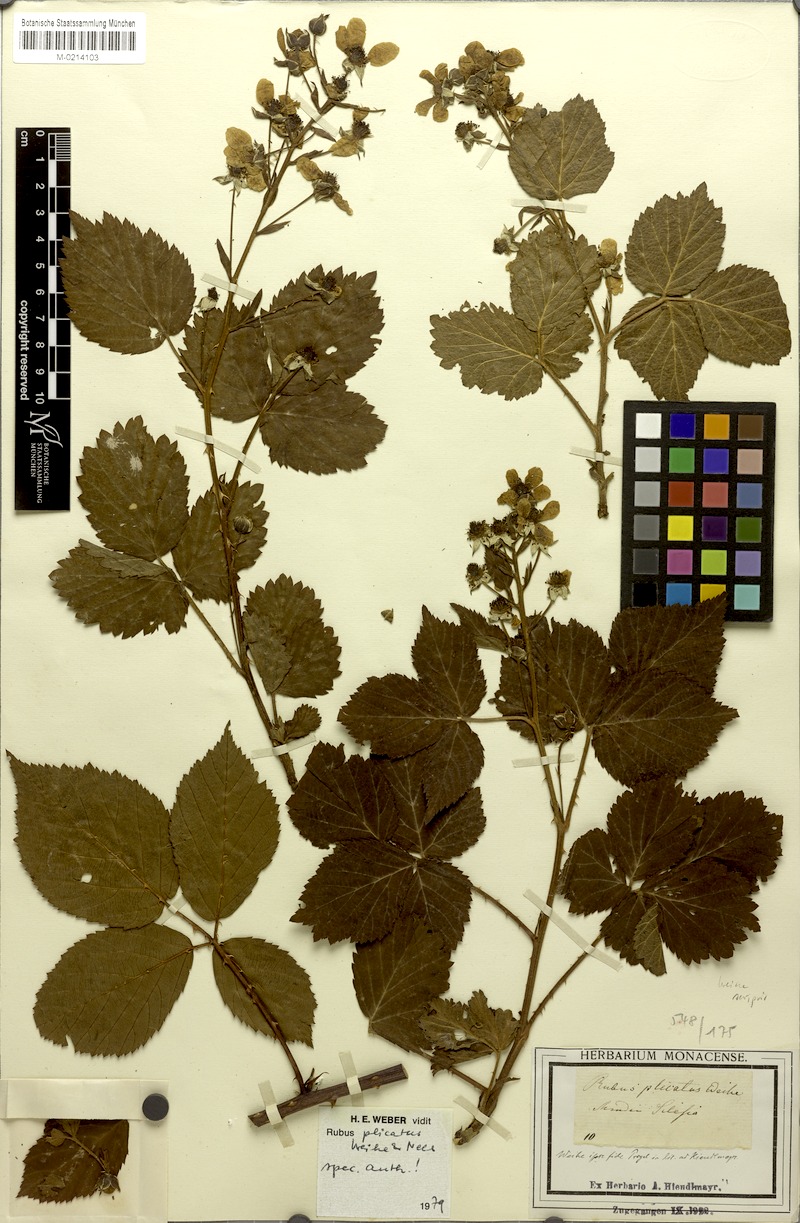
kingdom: Plantae
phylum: Tracheophyta
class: Magnoliopsida
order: Rosales
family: Rosaceae
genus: Rubus
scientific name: Rubus plicatus
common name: Plaited-leaved bramble
